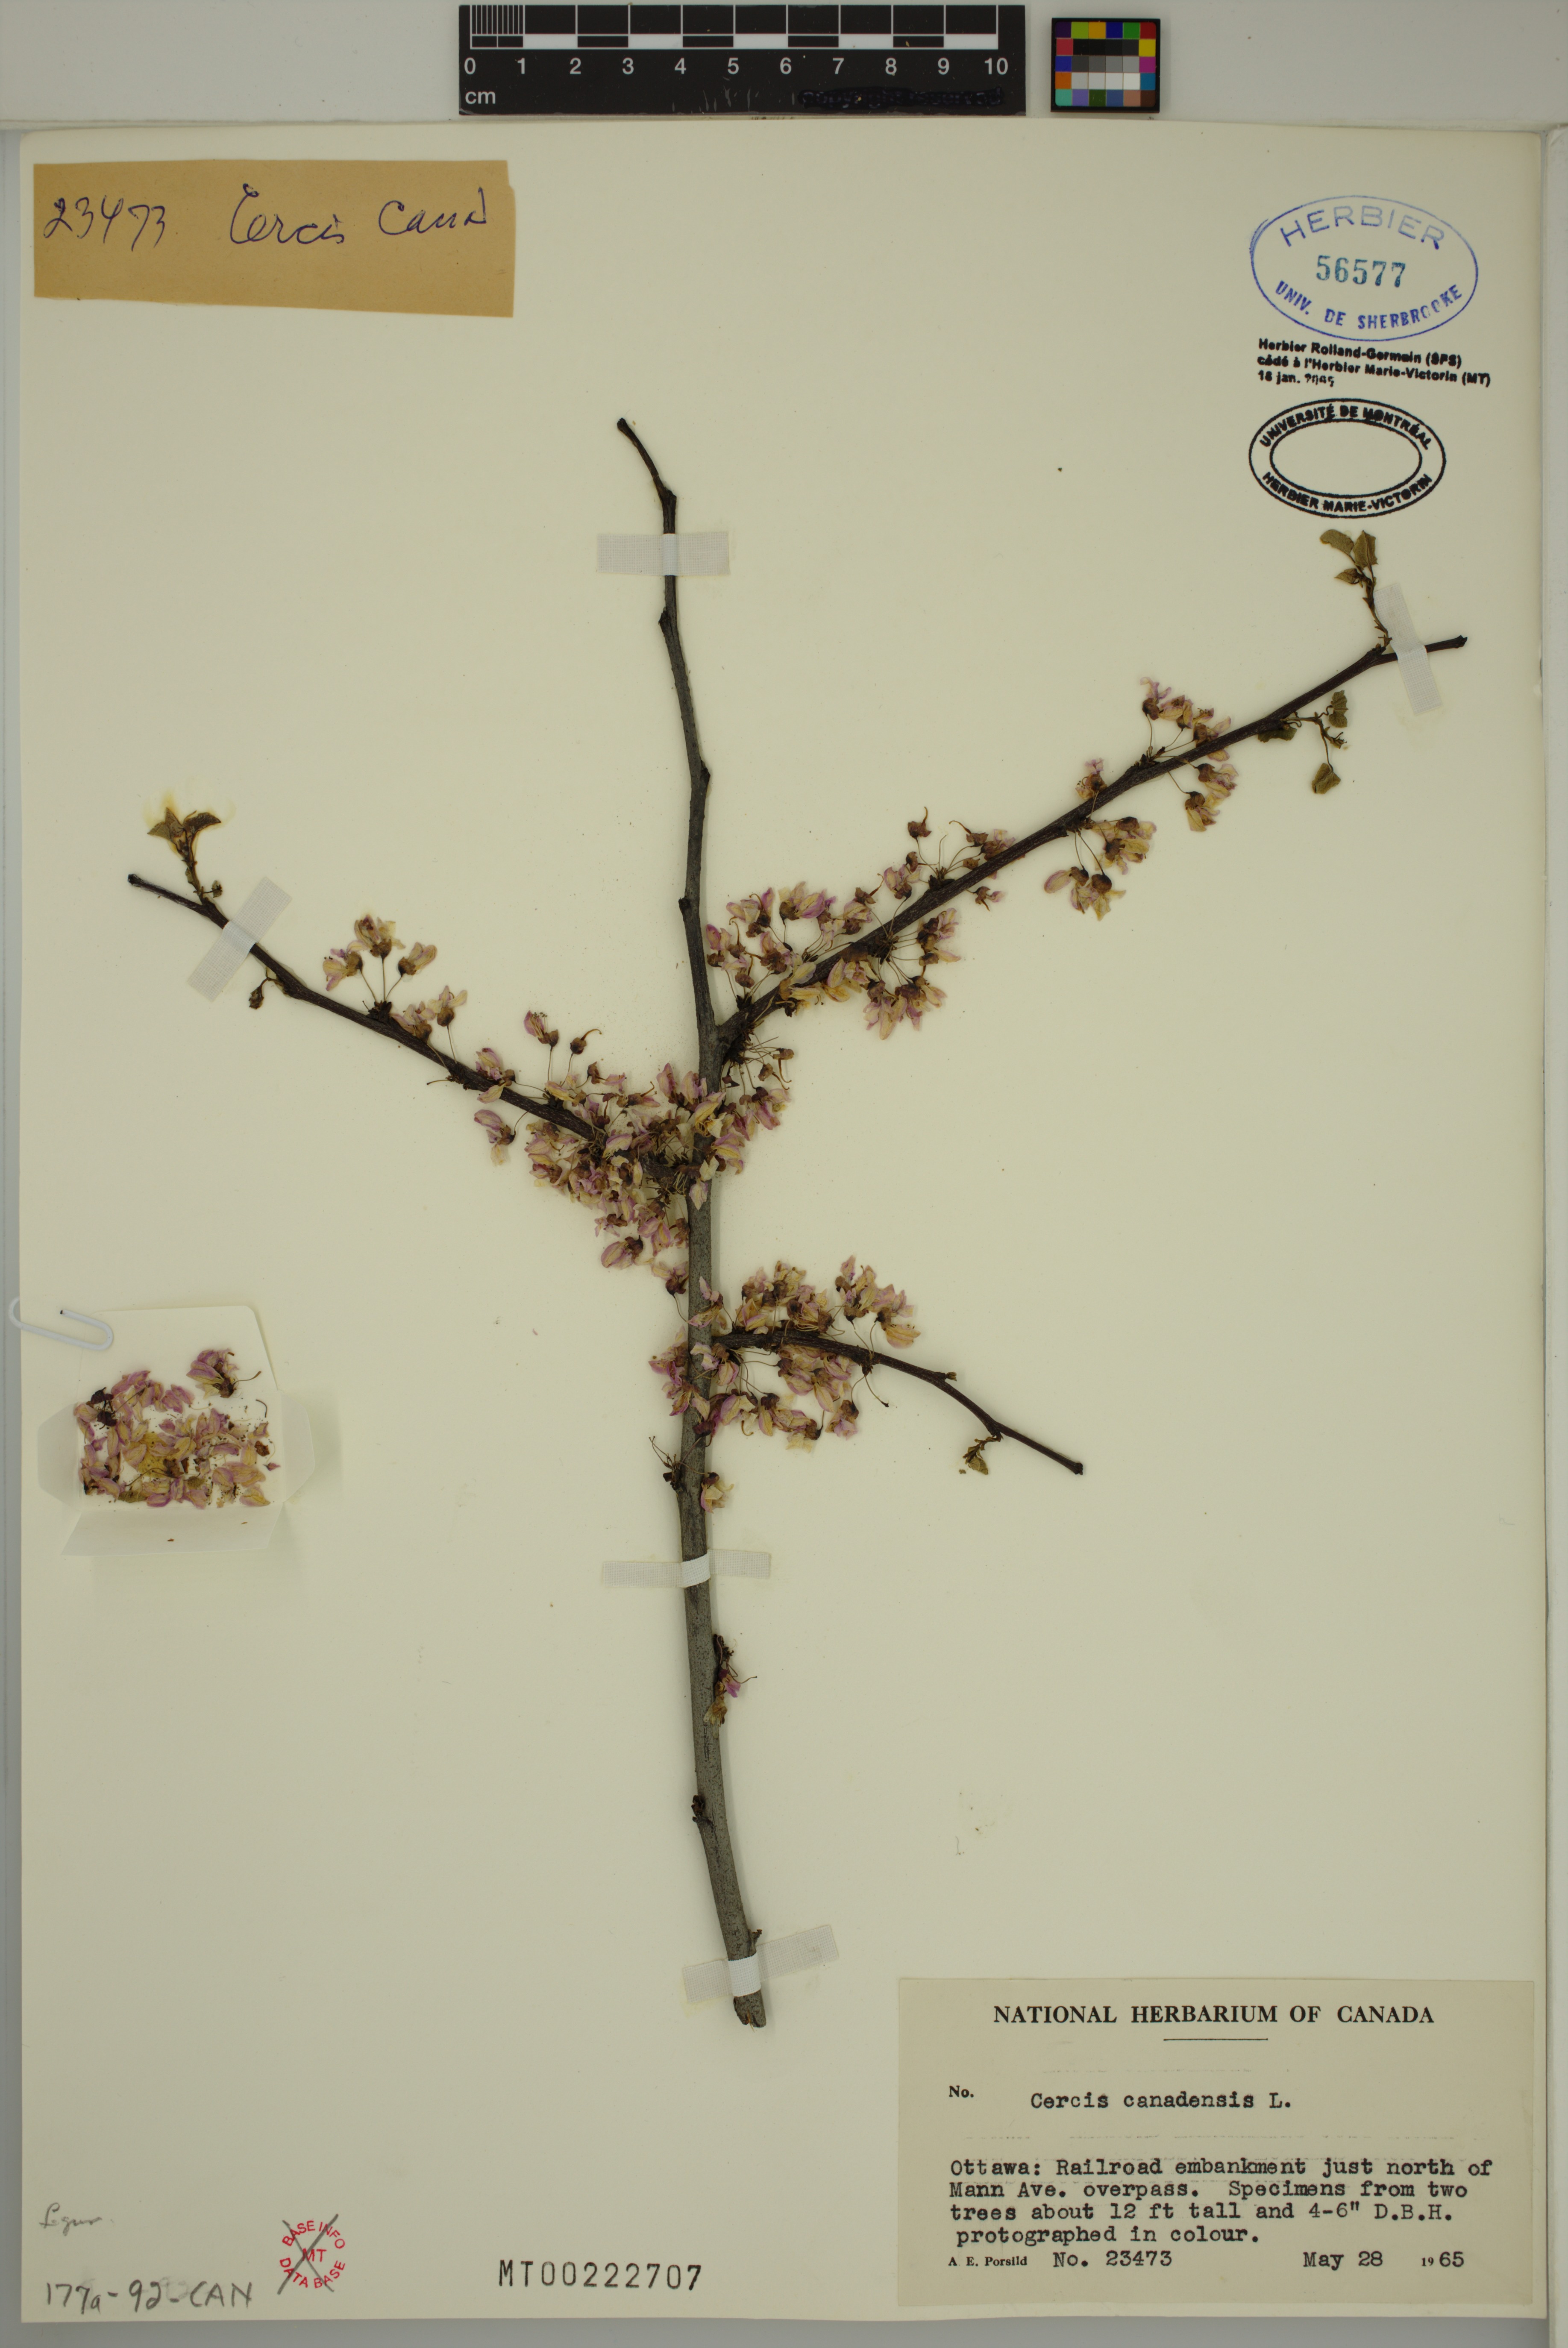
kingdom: Plantae
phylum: Tracheophyta
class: Magnoliopsida
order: Fabales
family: Fabaceae
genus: Cercis
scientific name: Cercis canadensis
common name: Eastern redbud
